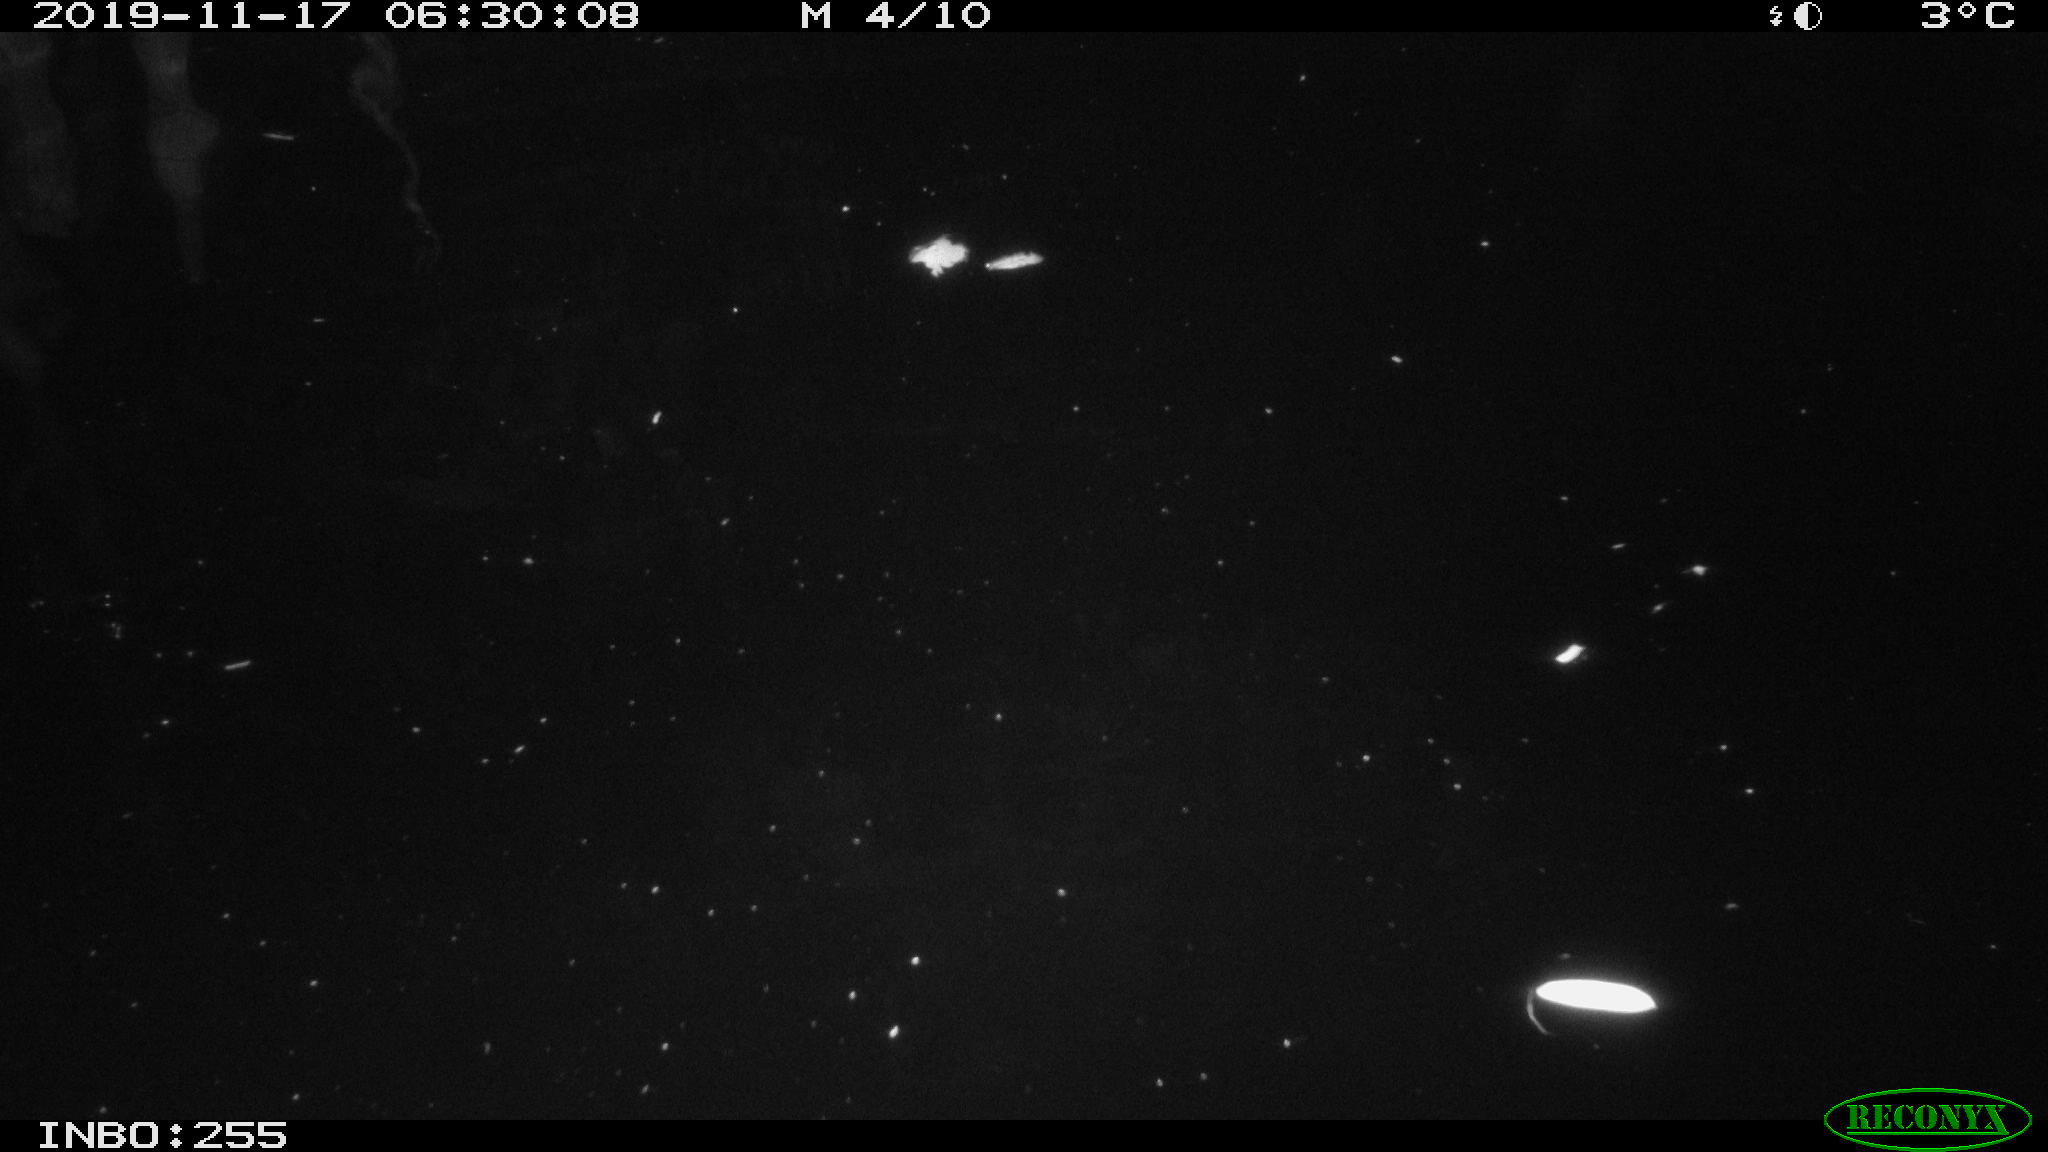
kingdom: Animalia
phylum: Chordata
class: Aves
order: Anseriformes
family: Anatidae
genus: Anas
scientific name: Anas platyrhynchos
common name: Mallard
